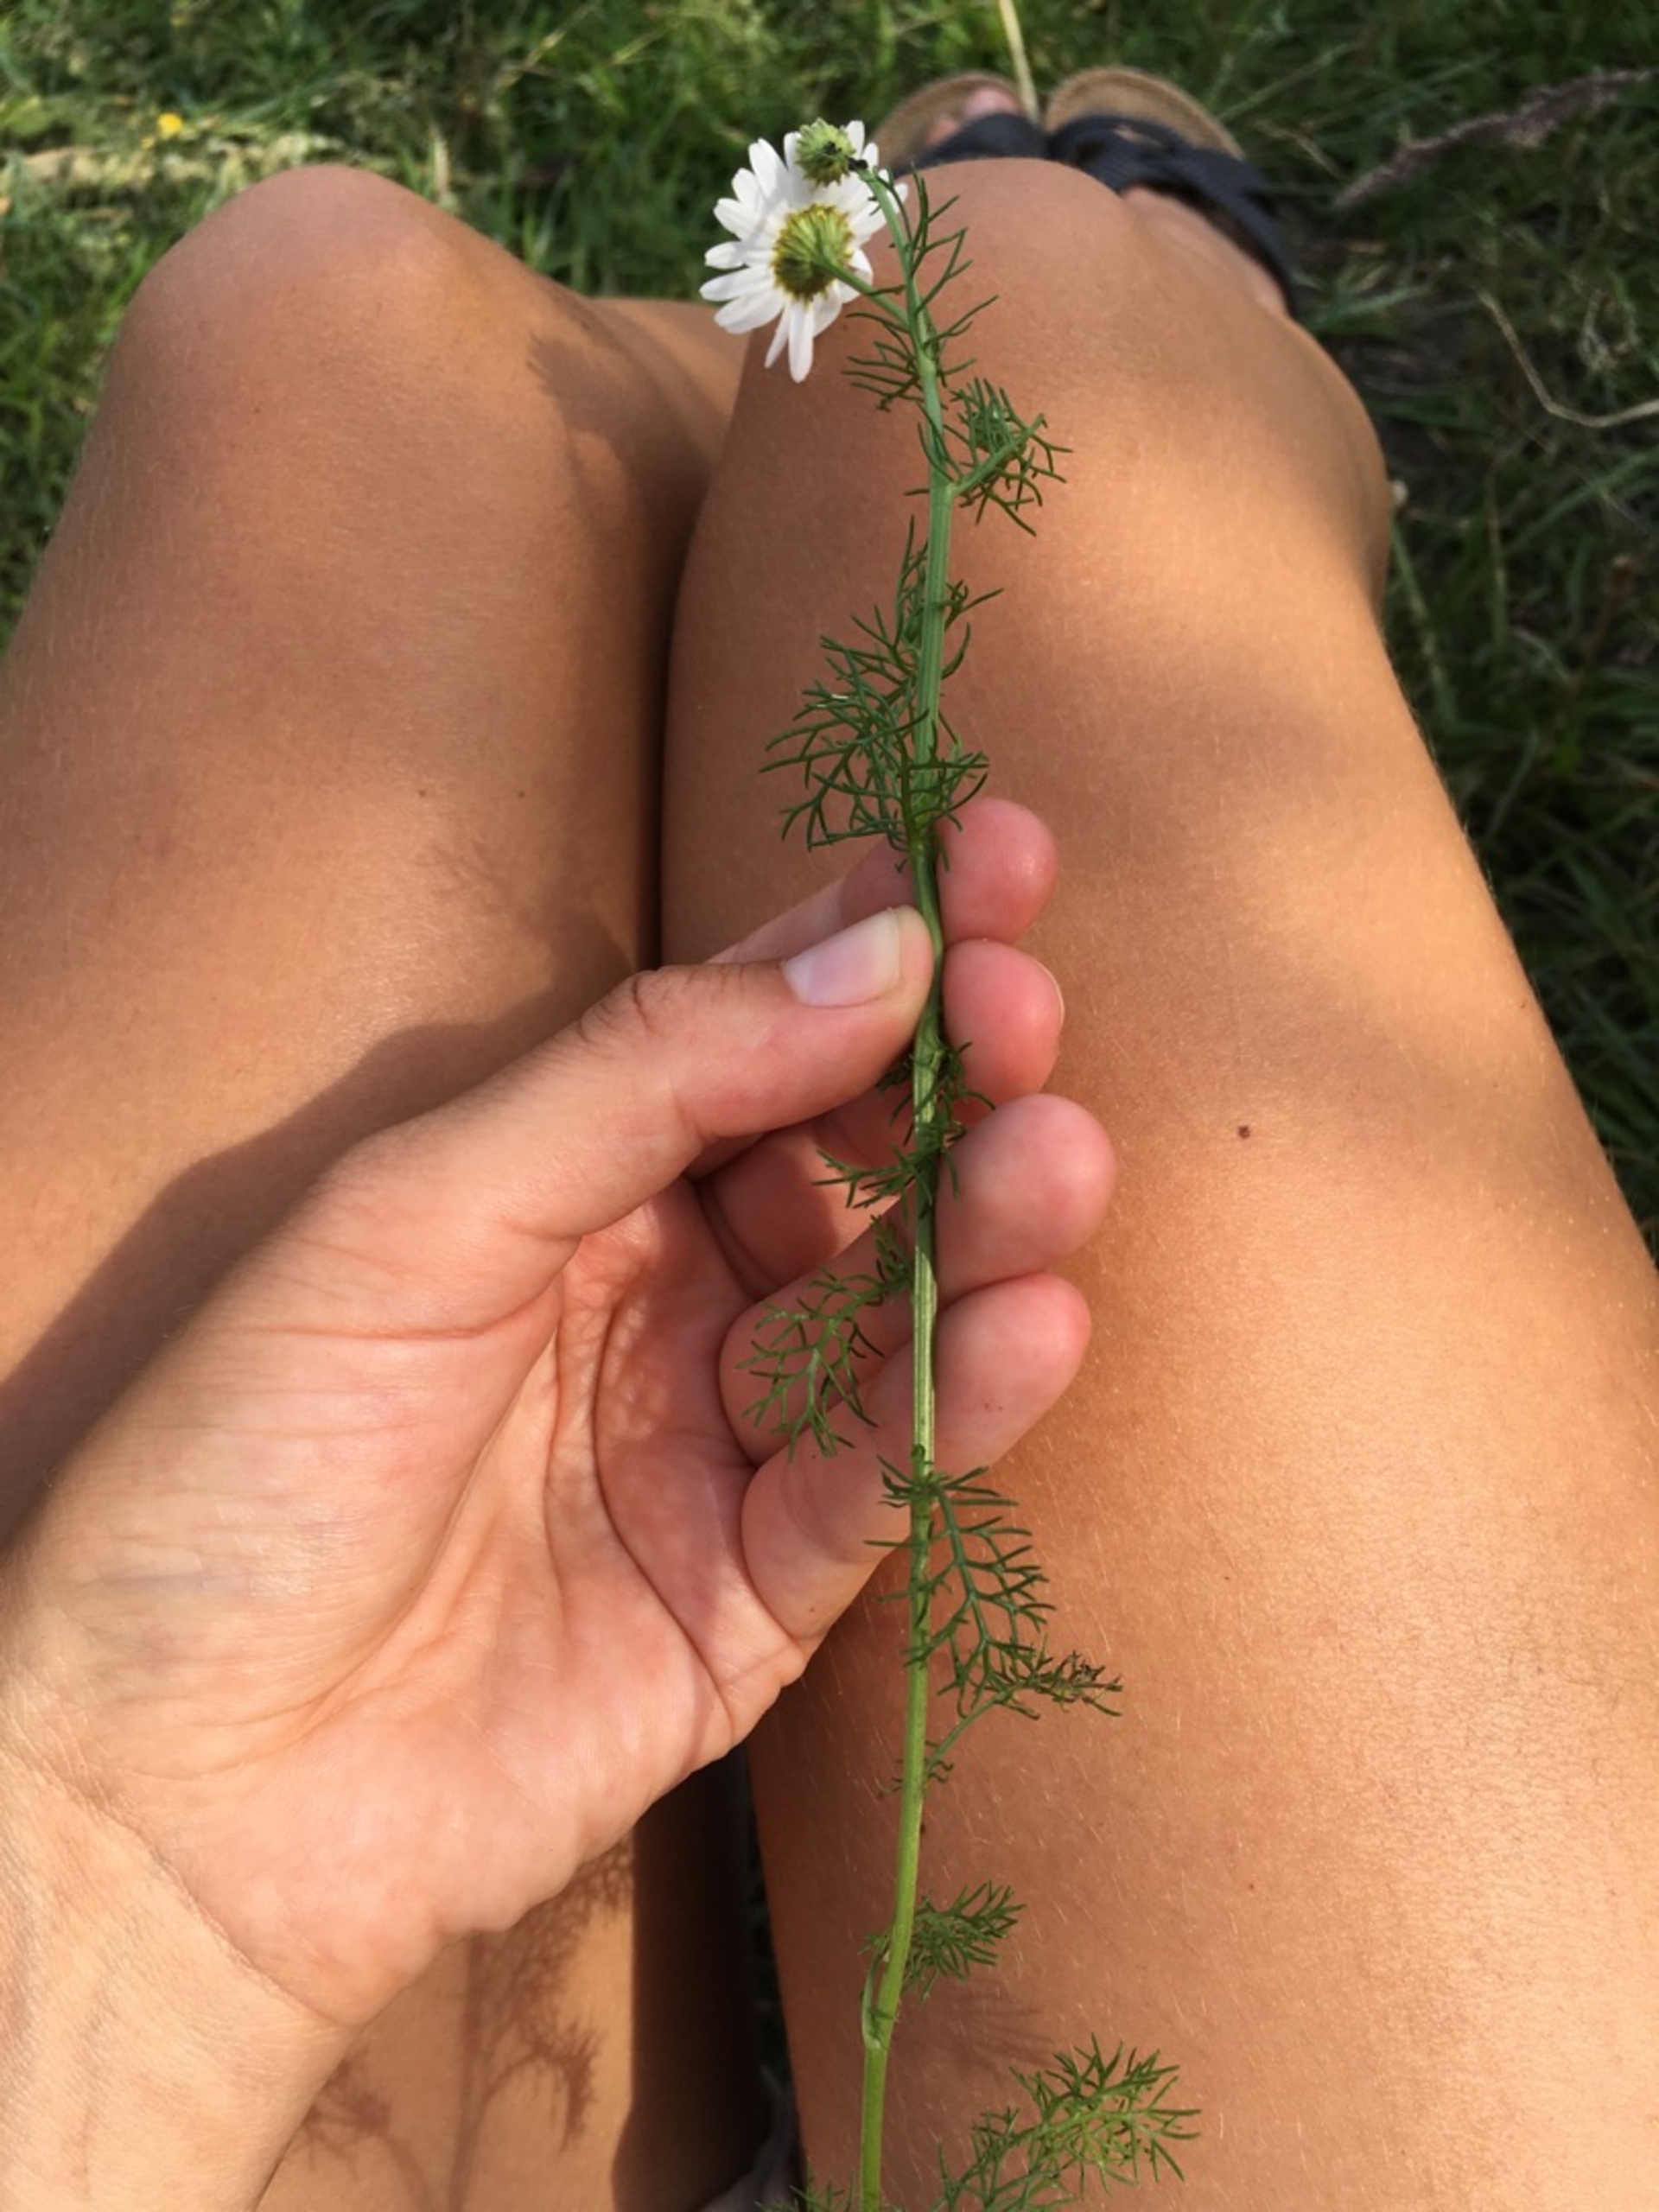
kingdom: Plantae
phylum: Tracheophyta
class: Magnoliopsida
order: Asterales
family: Asteraceae
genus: Tripleurospermum
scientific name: Tripleurospermum inodorum
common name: Lugtløs kamille
